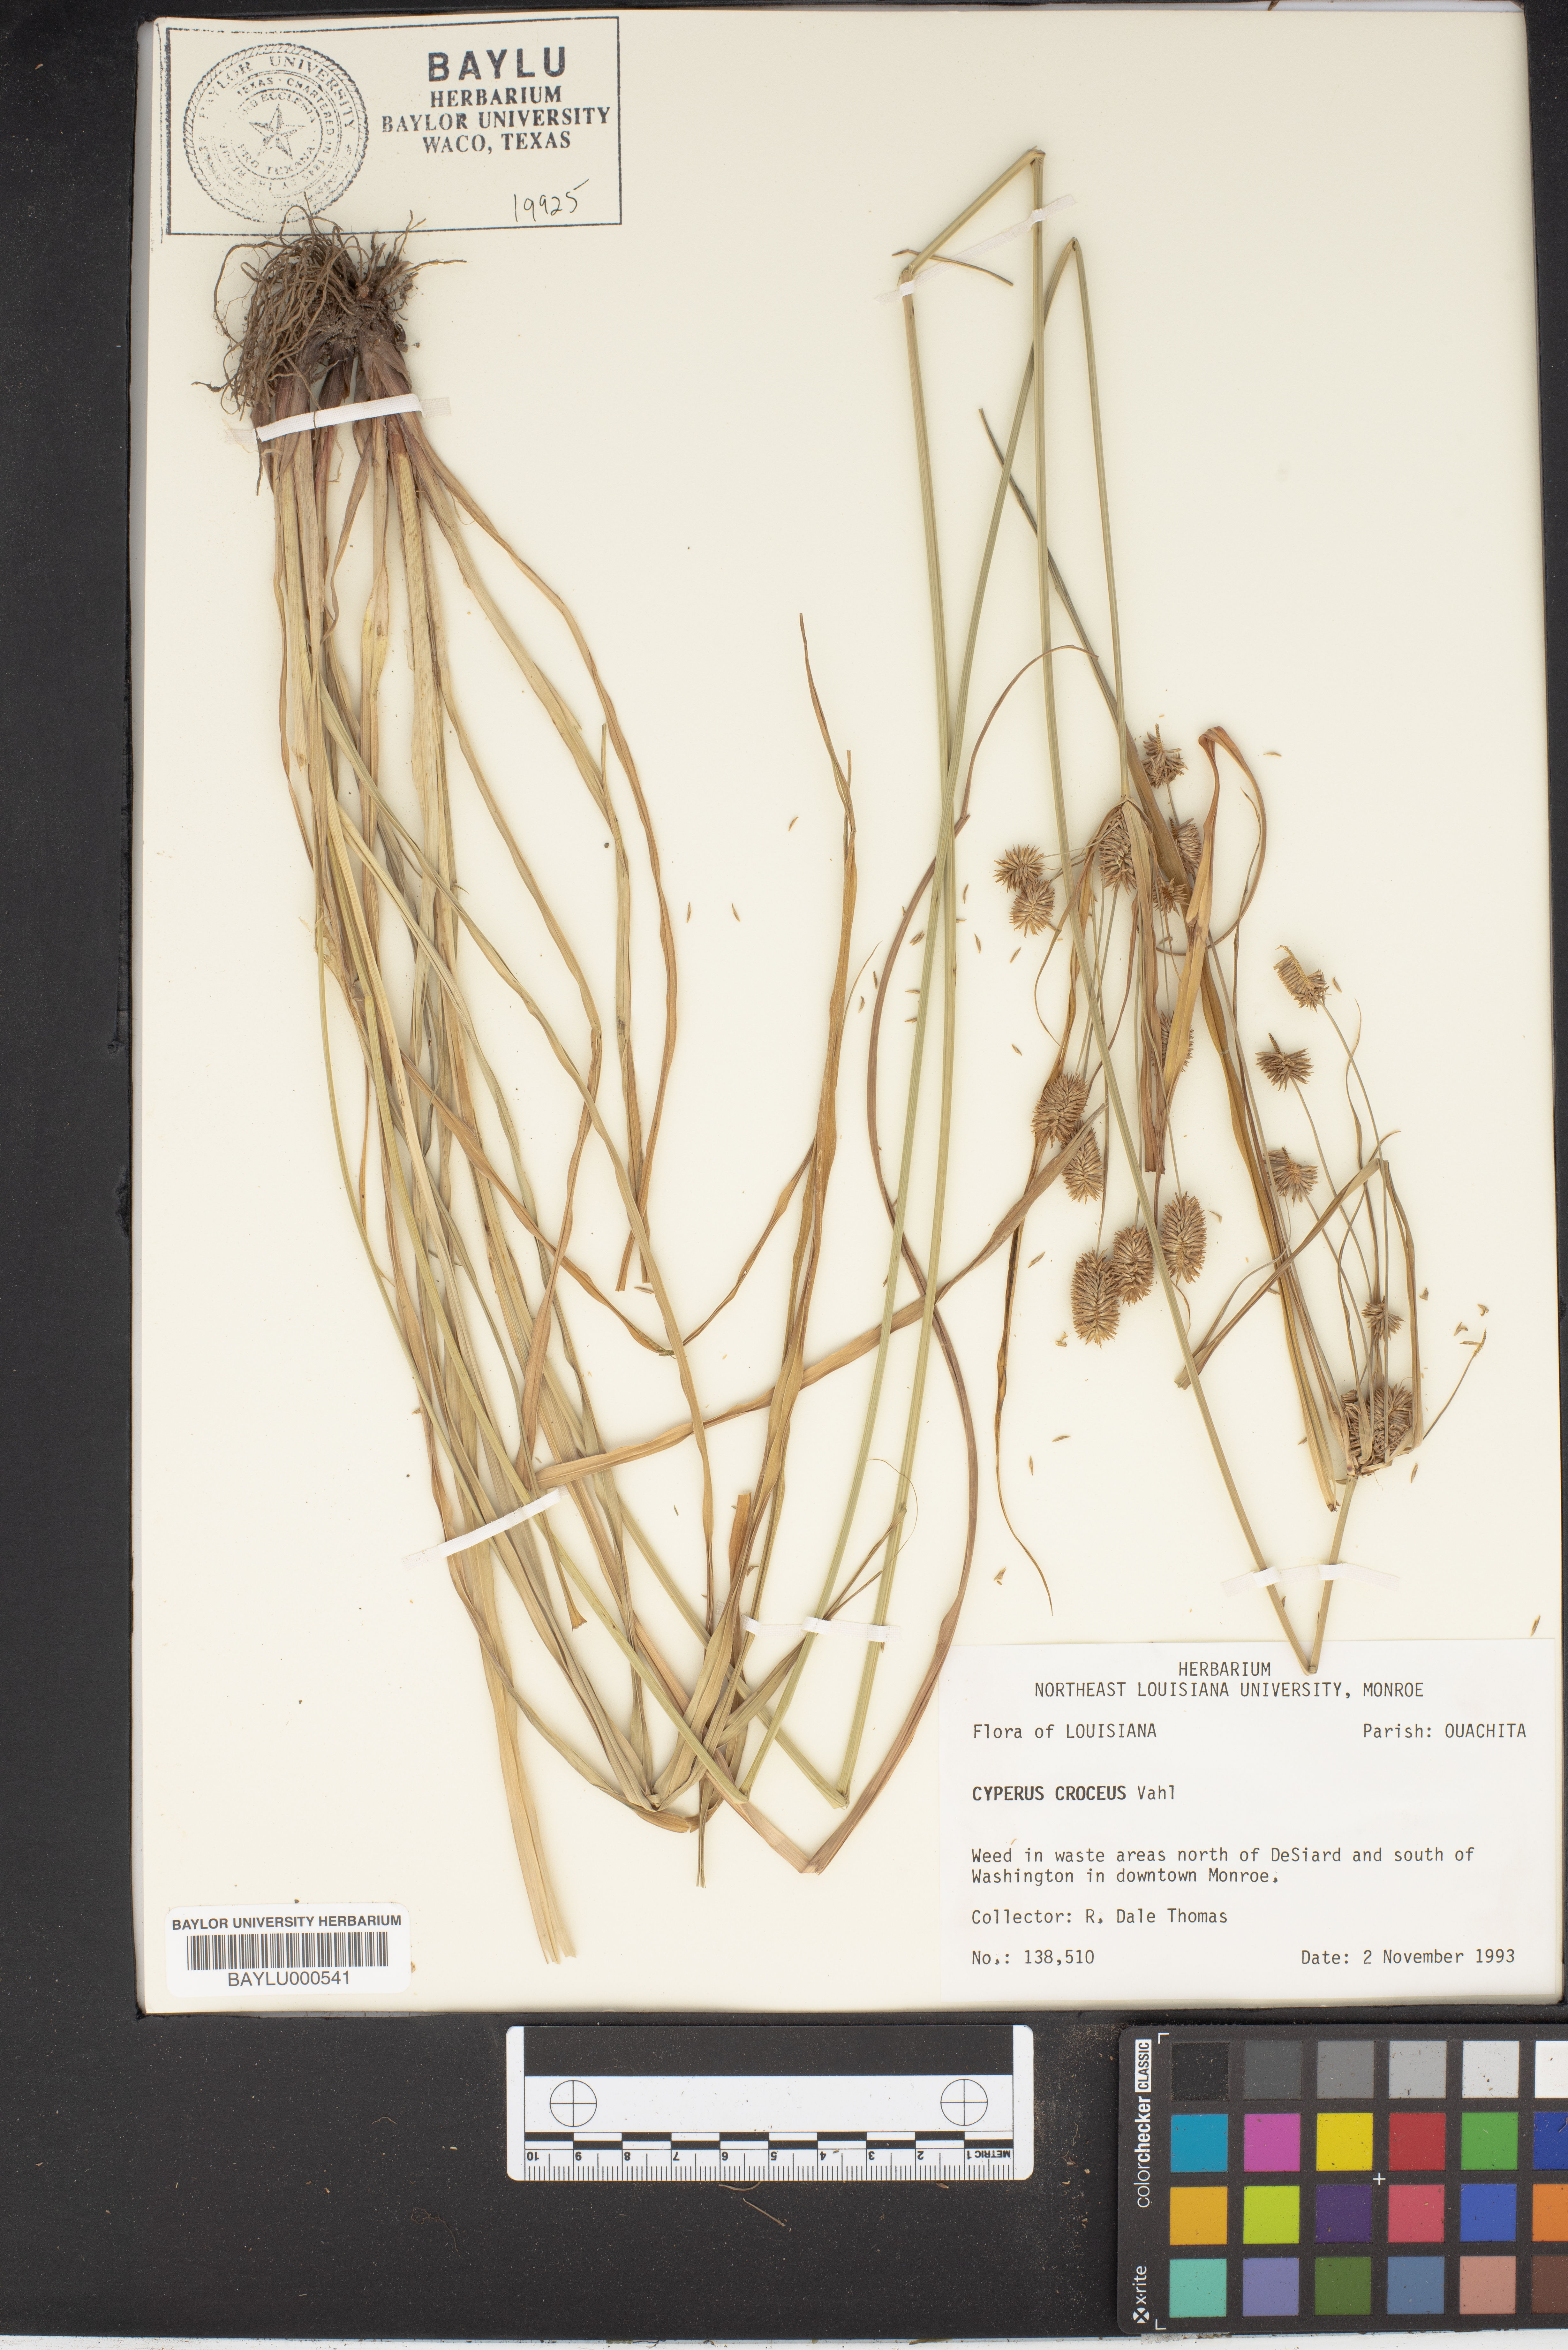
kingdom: Plantae
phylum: Tracheophyta
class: Liliopsida
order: Poales
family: Cyperaceae
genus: Cyperus
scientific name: Cyperus croceus
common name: Baldwin's flatsedge
